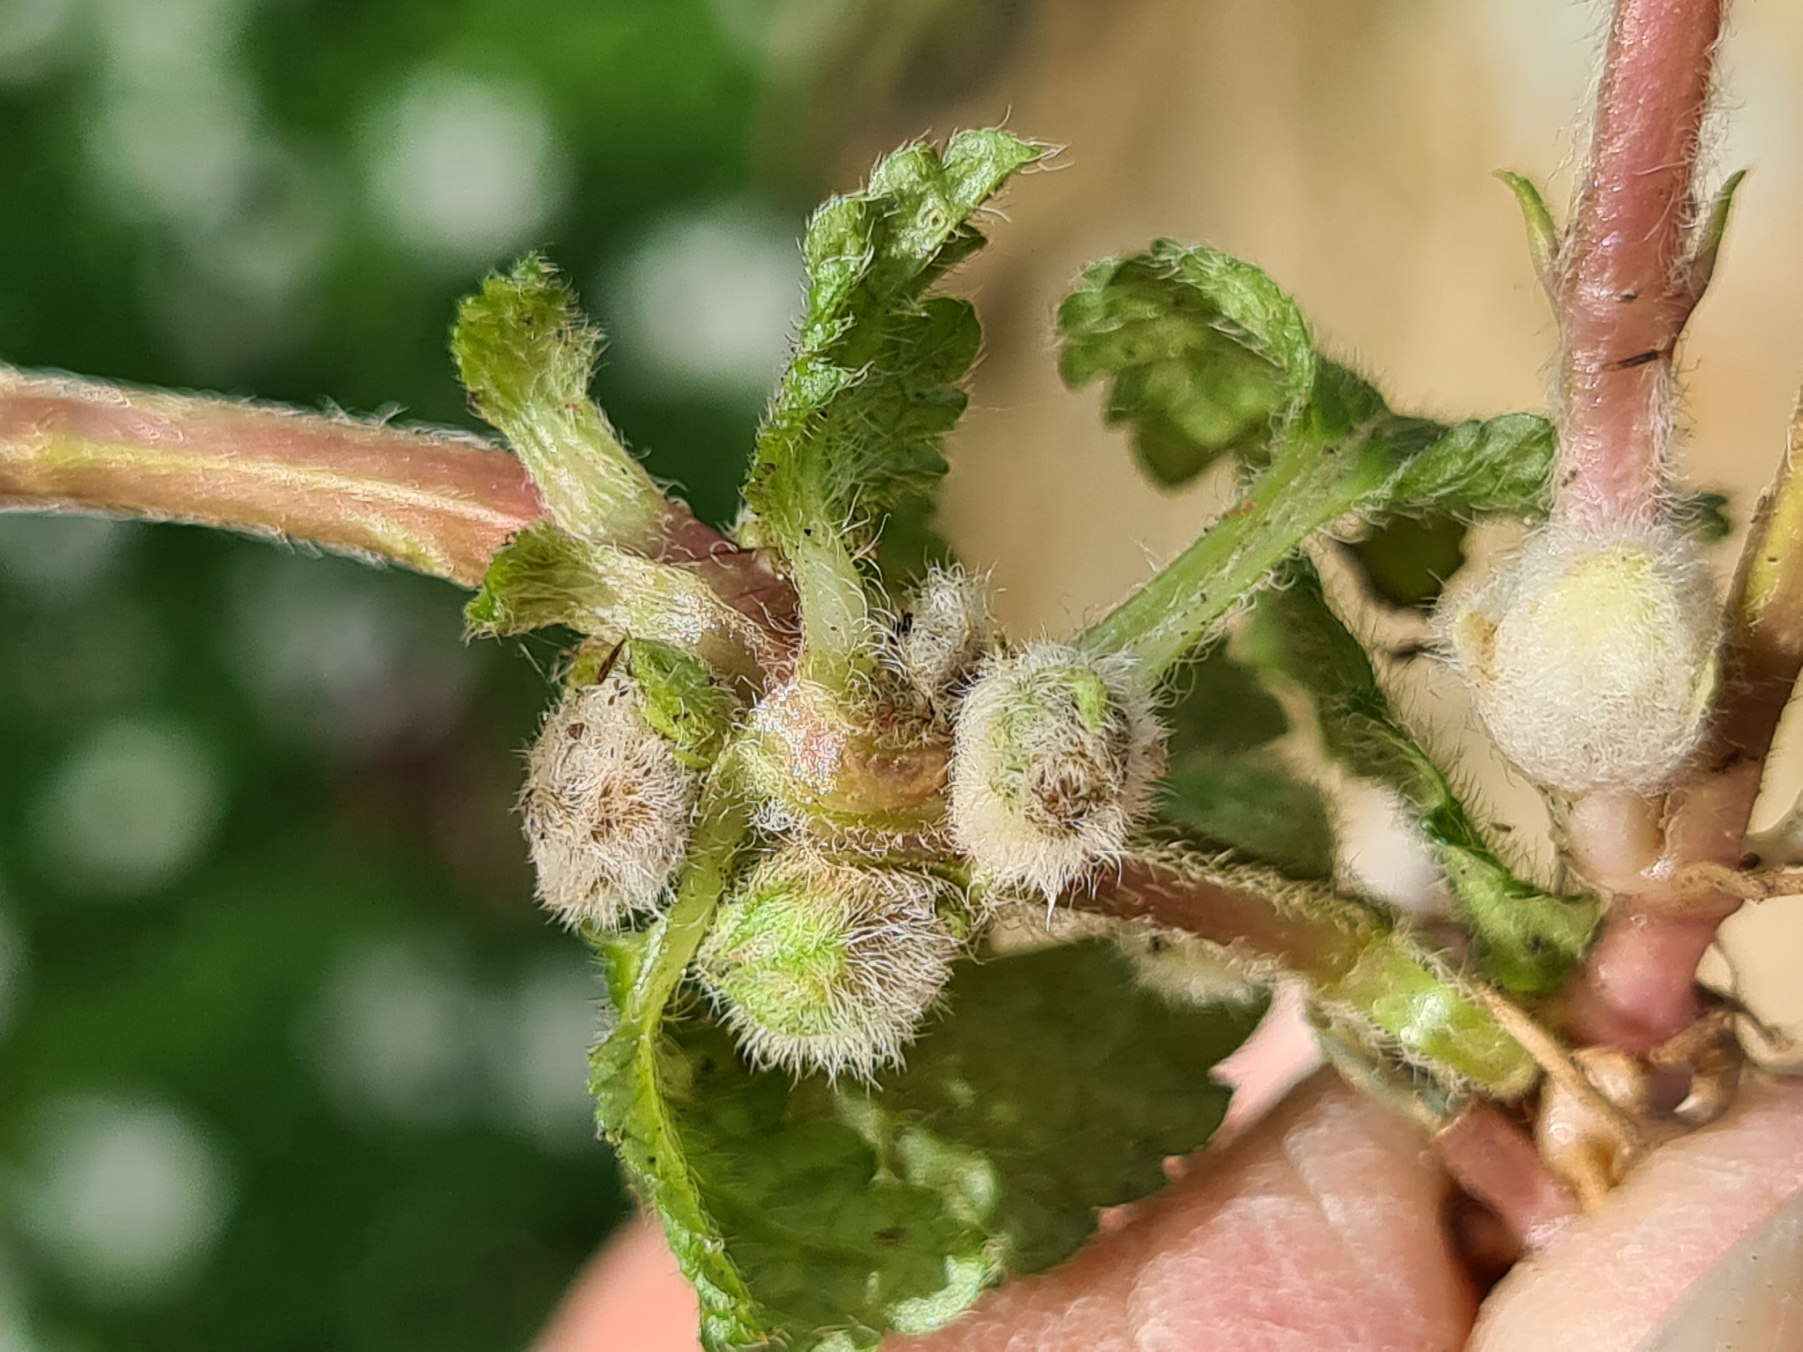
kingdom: Plantae
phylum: Tracheophyta
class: Magnoliopsida
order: Lamiales
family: Lamiaceae
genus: Lamium
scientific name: Lamium galeobdolon
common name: Guldnælde
